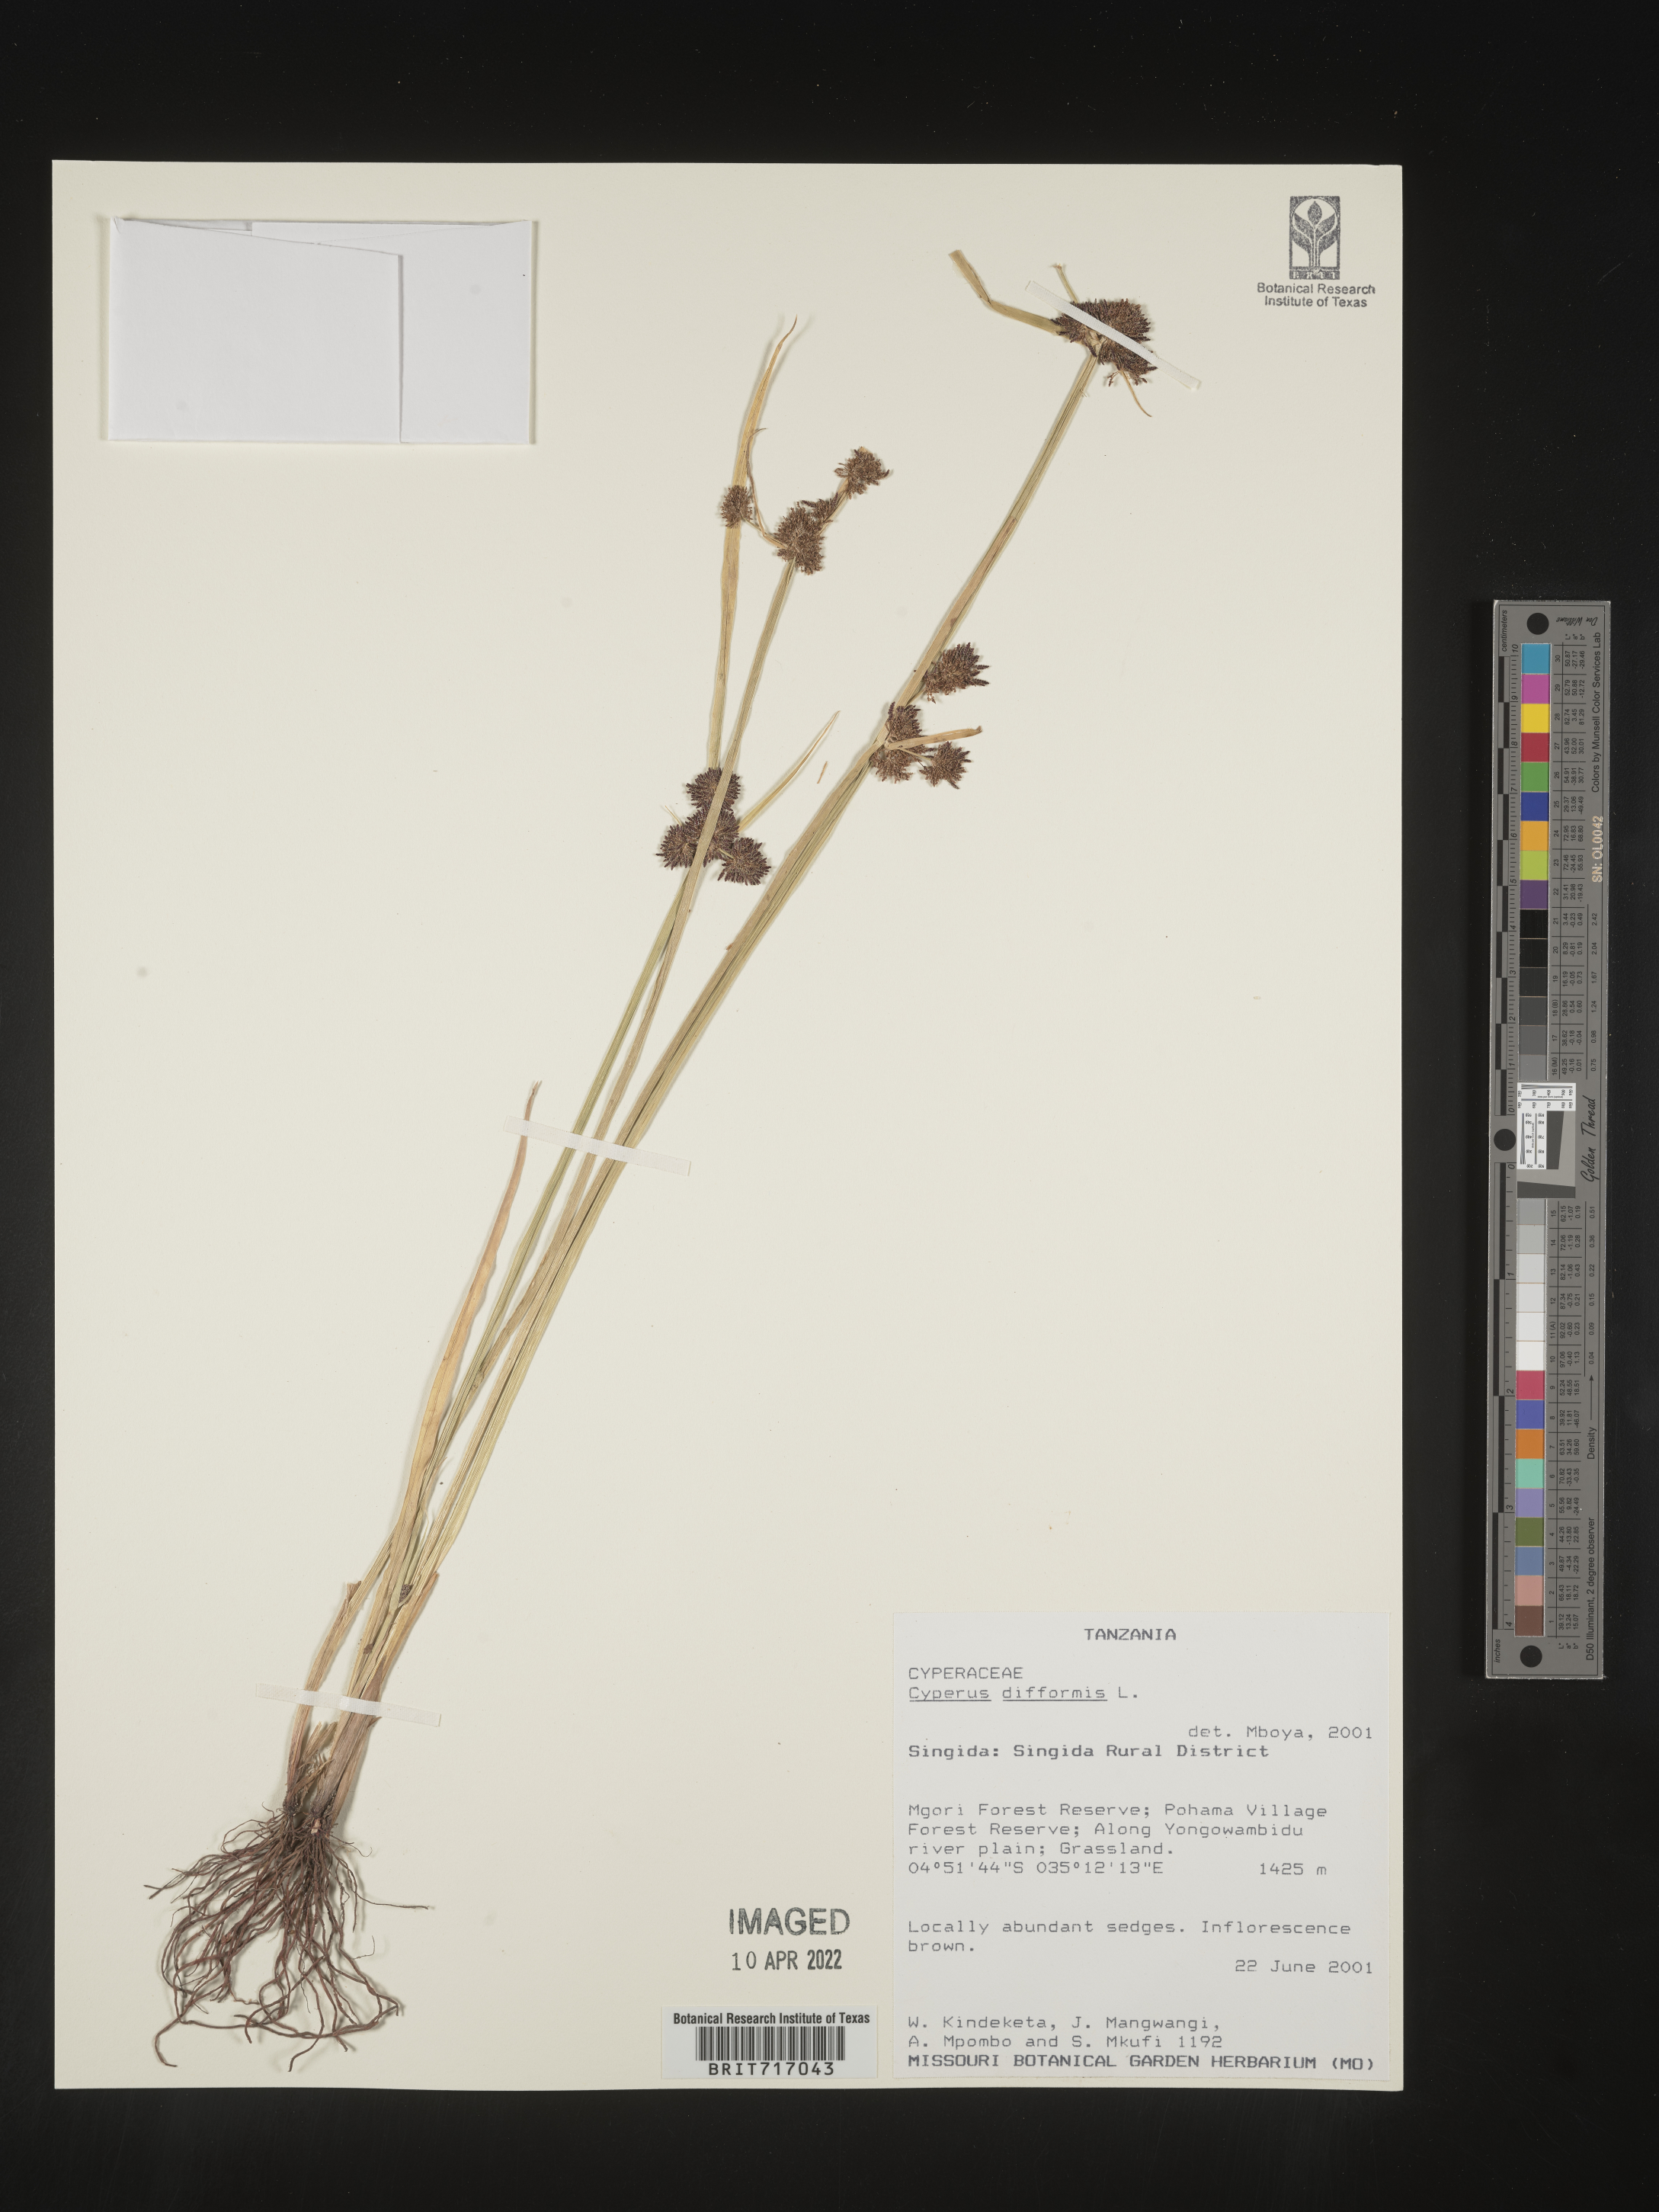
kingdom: Plantae
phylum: Tracheophyta
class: Liliopsida
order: Poales
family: Cyperaceae
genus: Cyperus
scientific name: Cyperus
